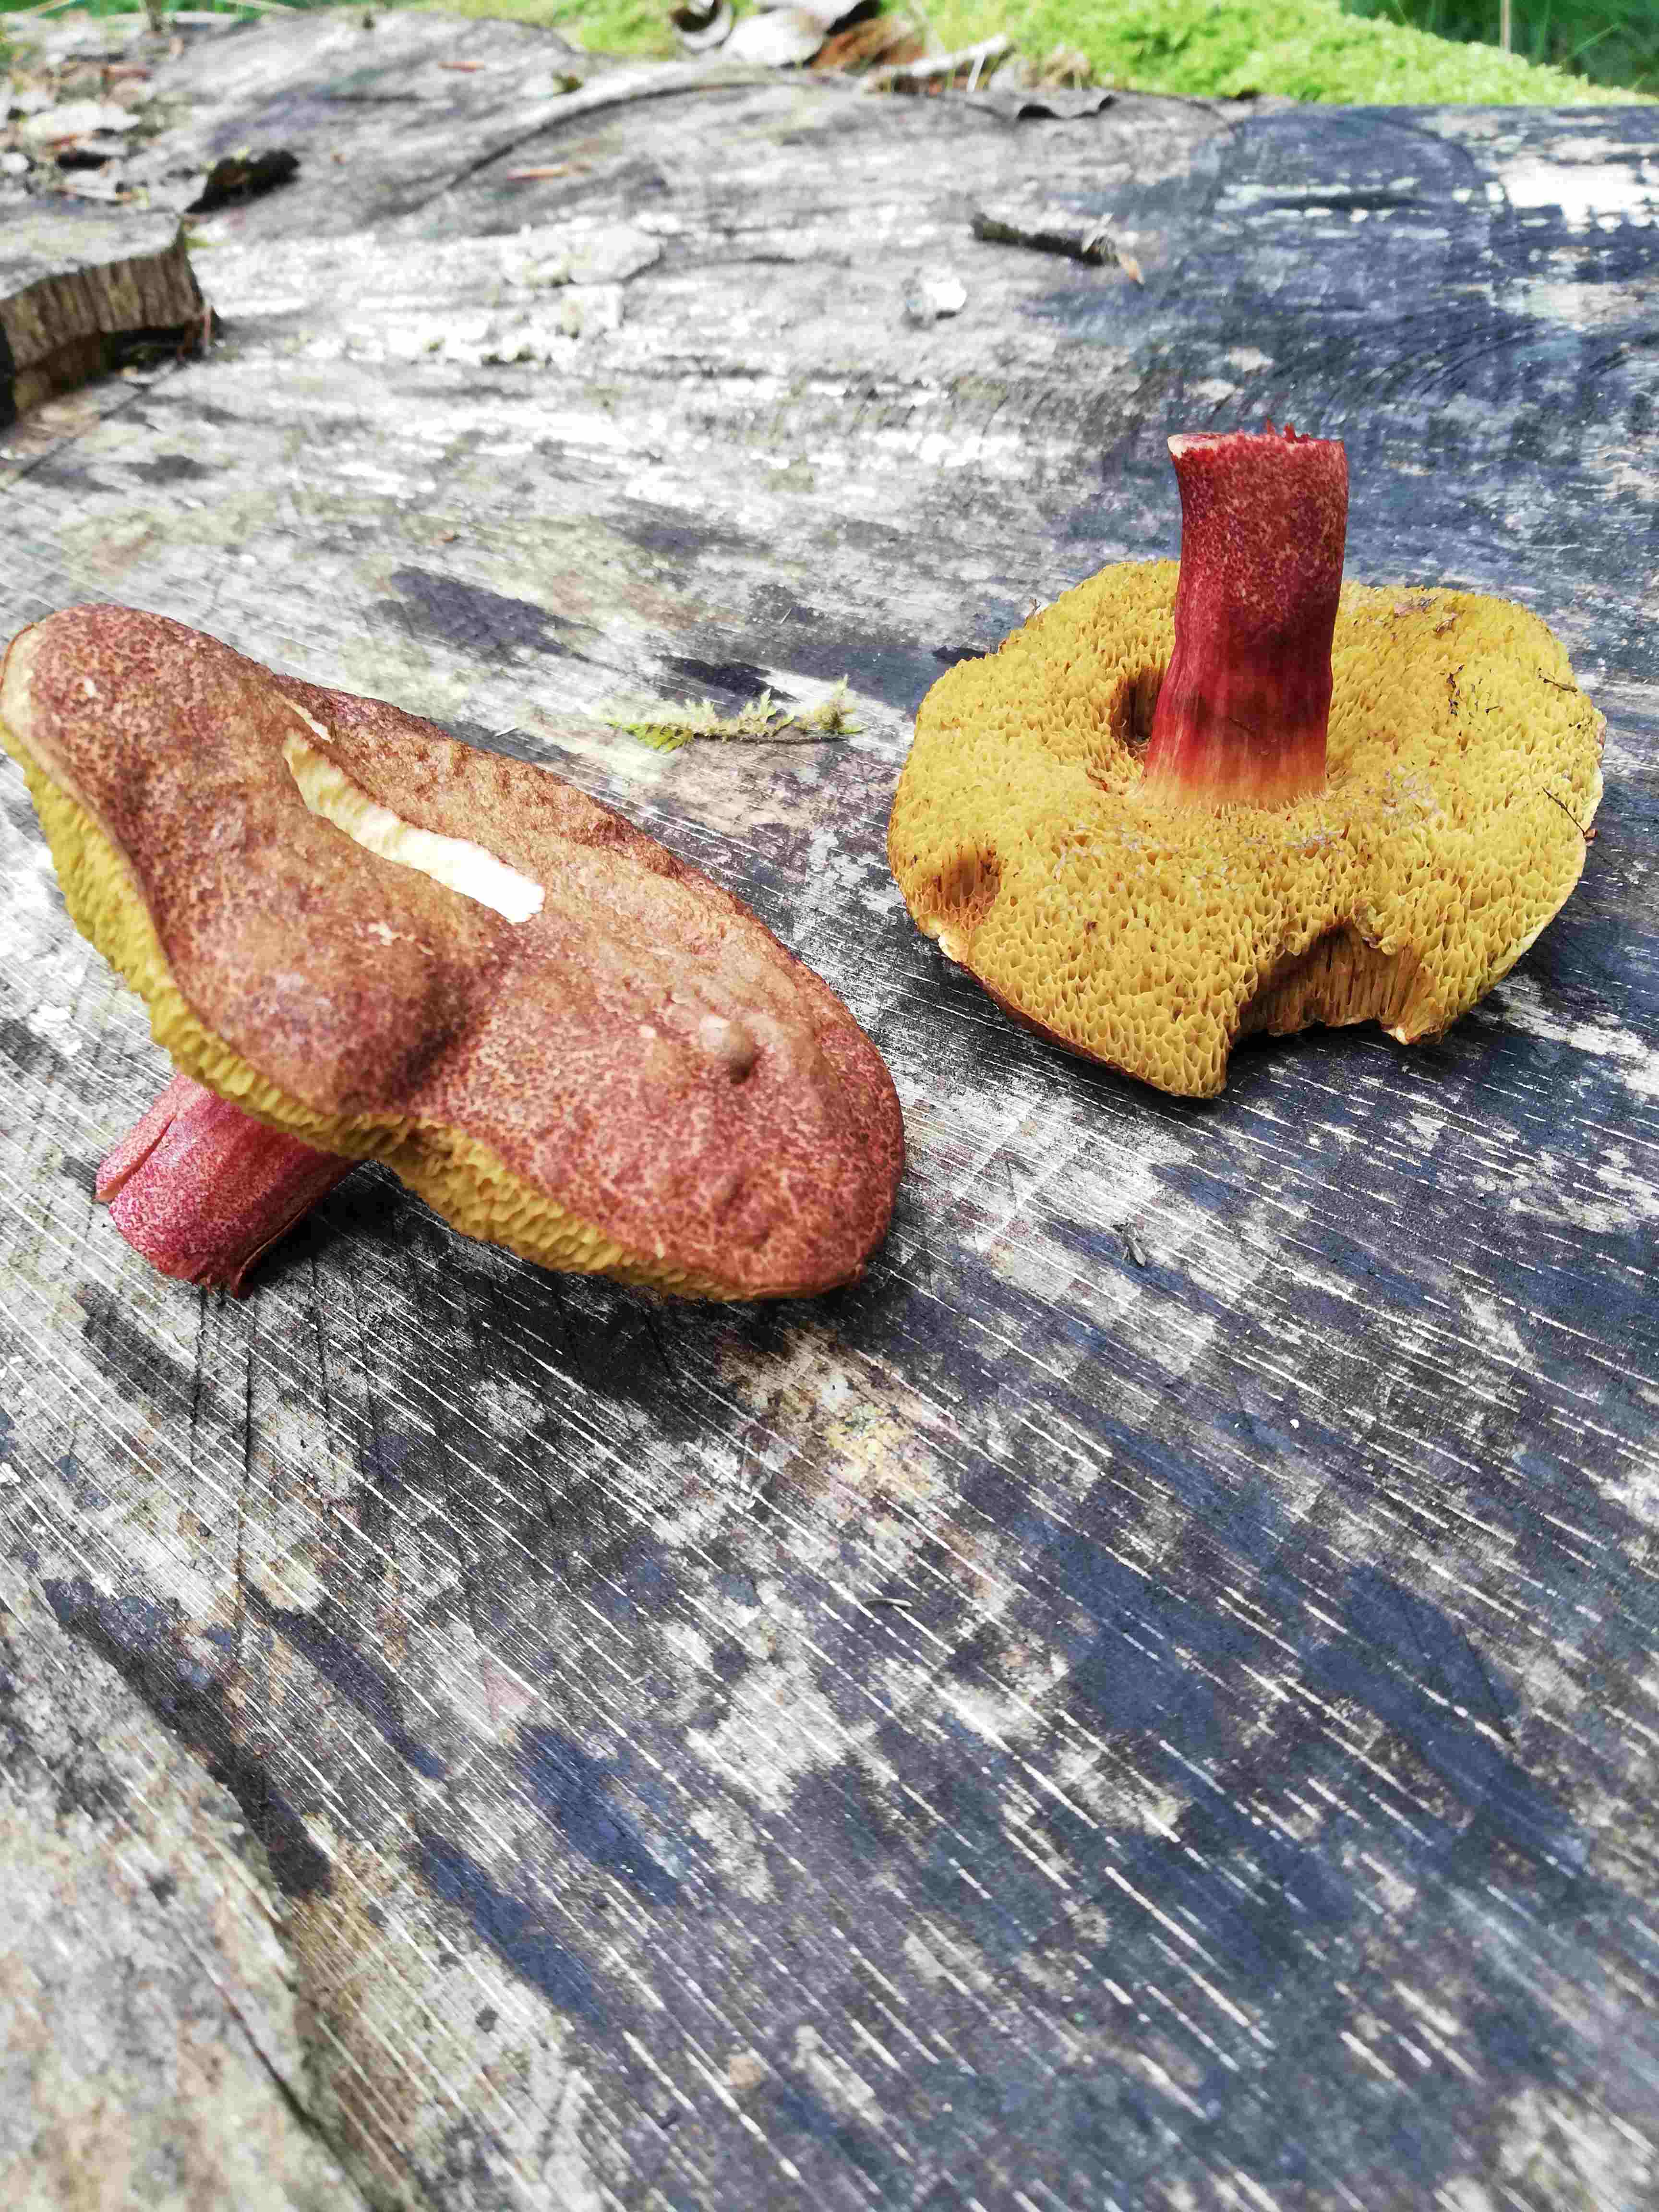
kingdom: Fungi
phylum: Basidiomycota
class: Agaricomycetes
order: Boletales
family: Boletaceae
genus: Xerocomellus
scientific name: Xerocomellus
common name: dværgrørhat
